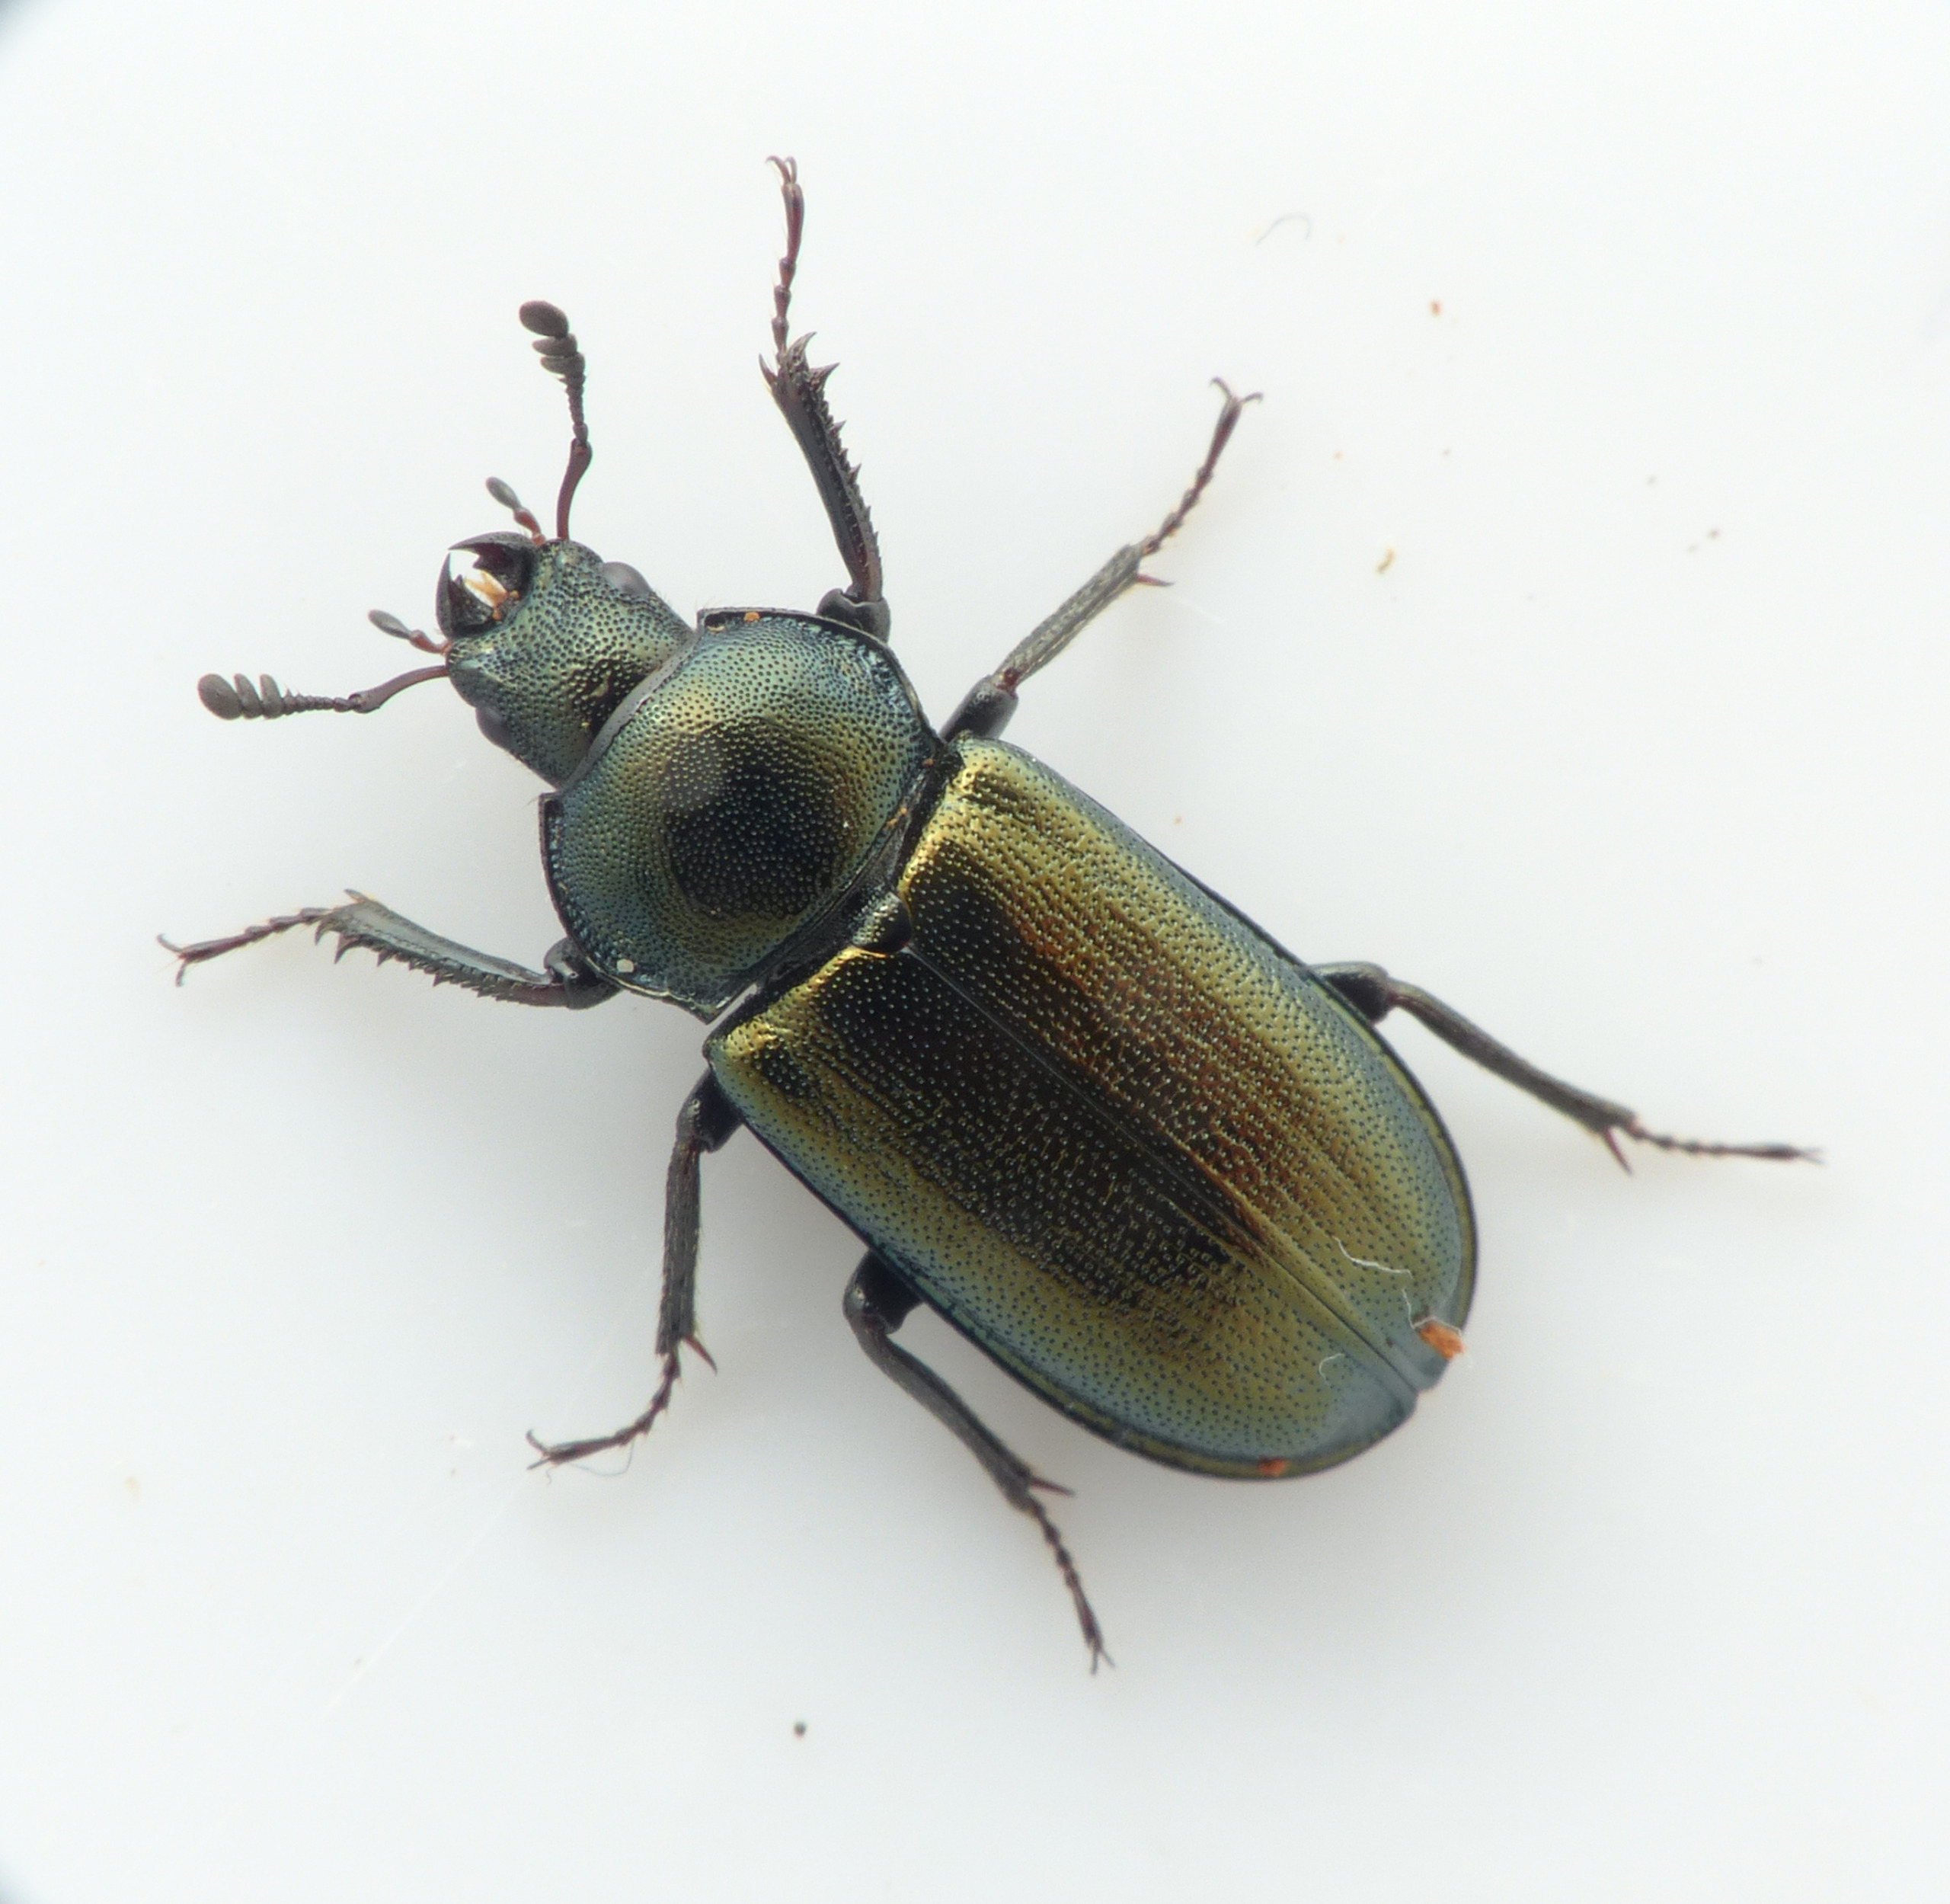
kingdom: Animalia
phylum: Arthropoda
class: Insecta
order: Coleoptera
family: Lucanidae
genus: Platycerus
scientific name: Platycerus caraboides
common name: Blåhjort
